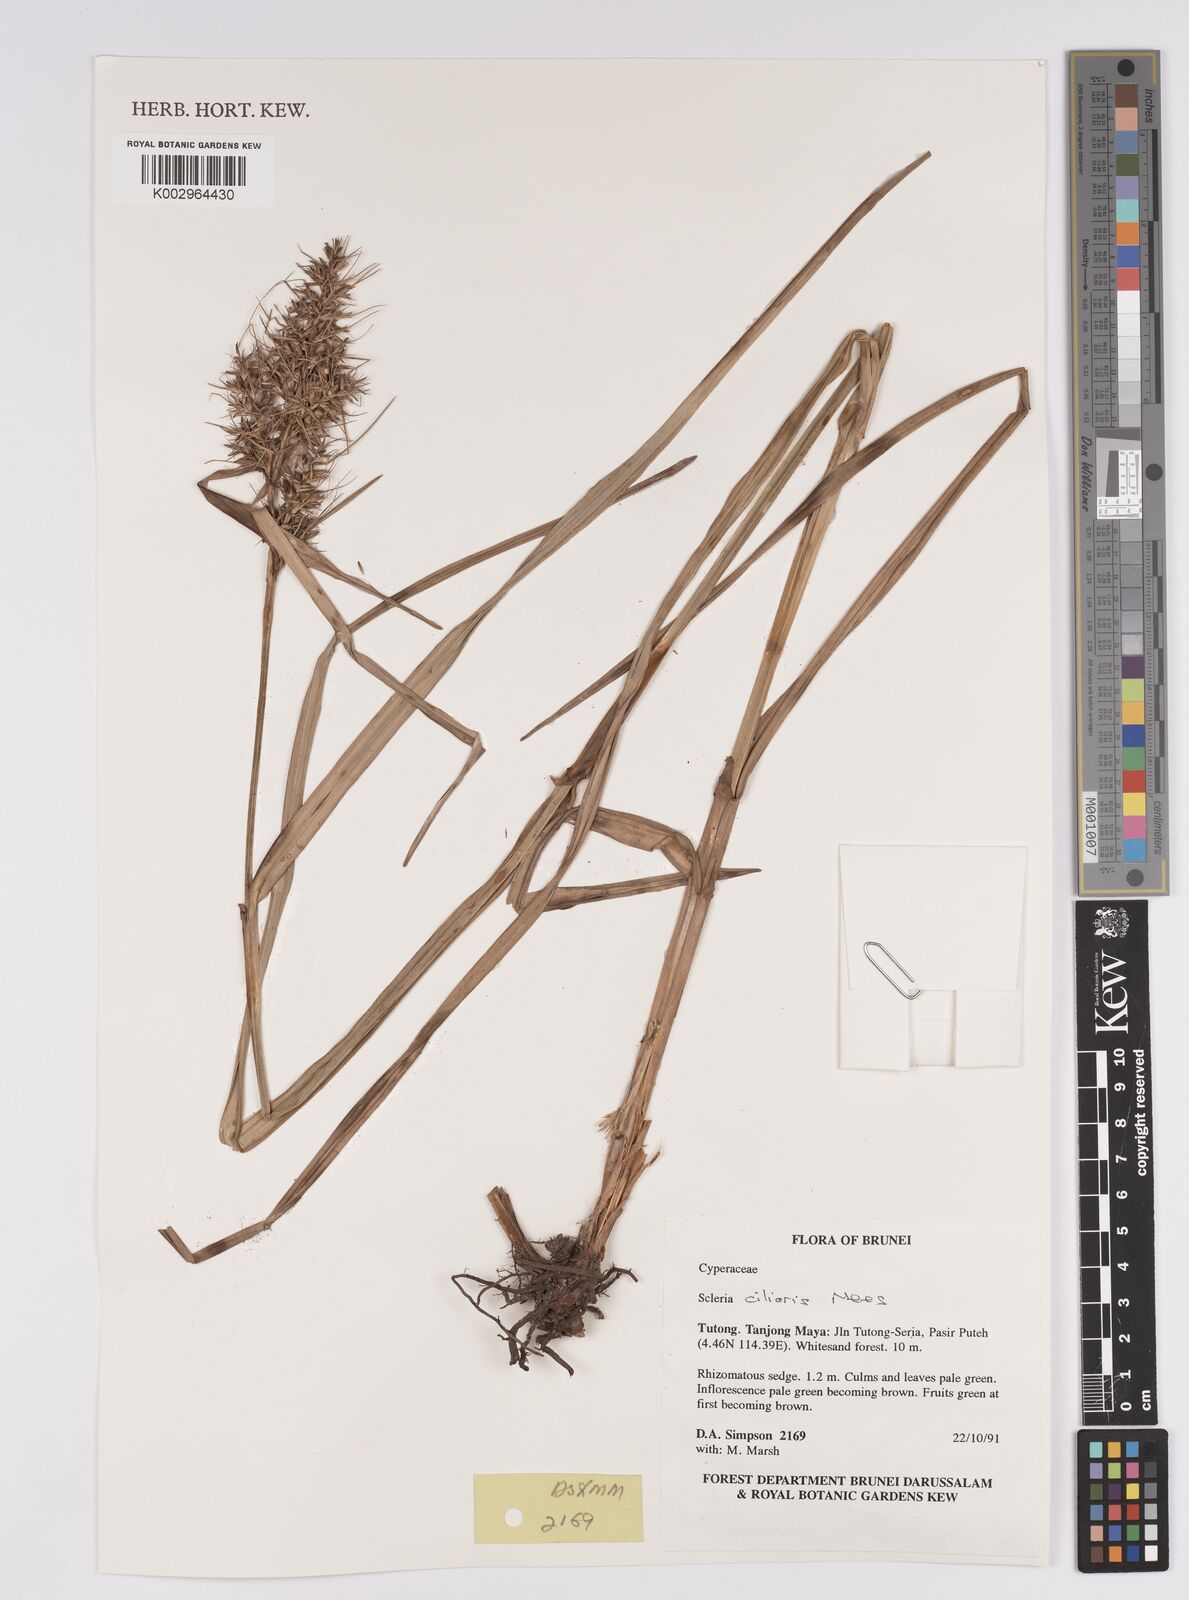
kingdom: Plantae
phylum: Tracheophyta
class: Liliopsida
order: Poales
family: Cyperaceae
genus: Scleria
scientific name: Scleria ciliaris
